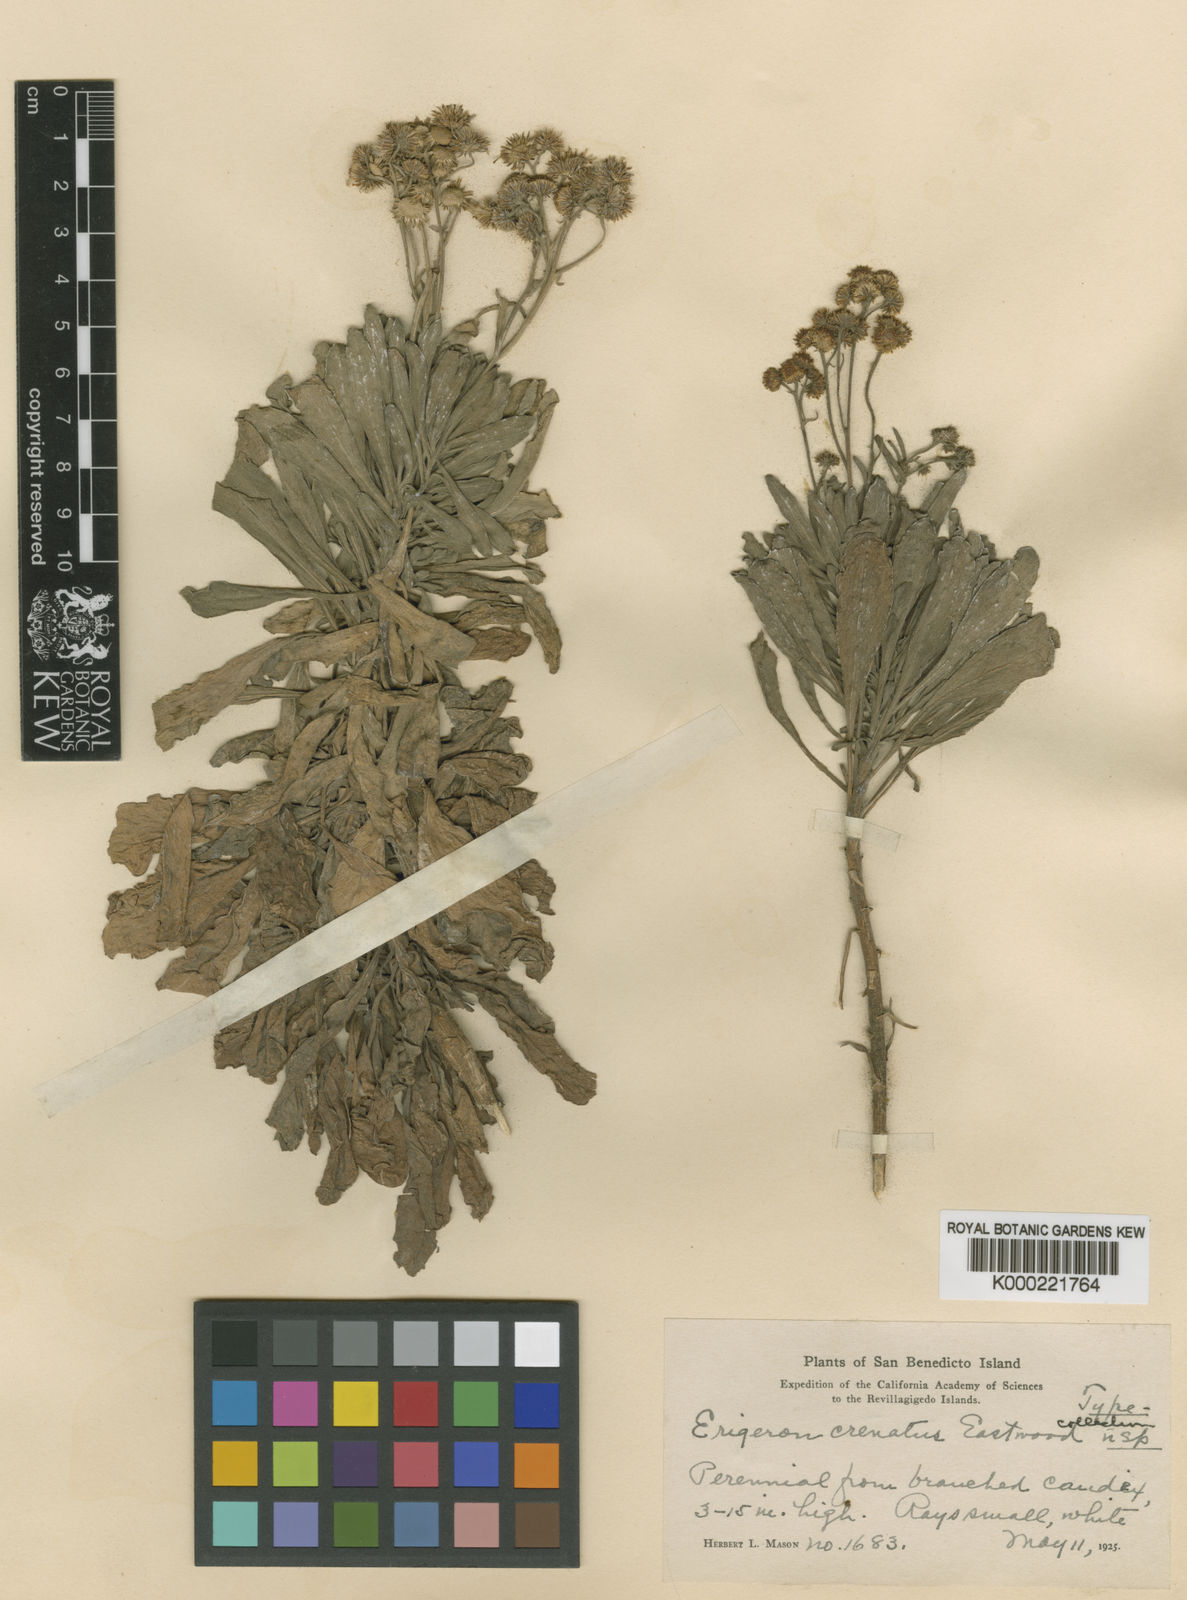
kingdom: Plantae
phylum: Tracheophyta
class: Magnoliopsida
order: Asterales
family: Asteraceae
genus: Erigeron
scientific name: Erigeron crenatus
